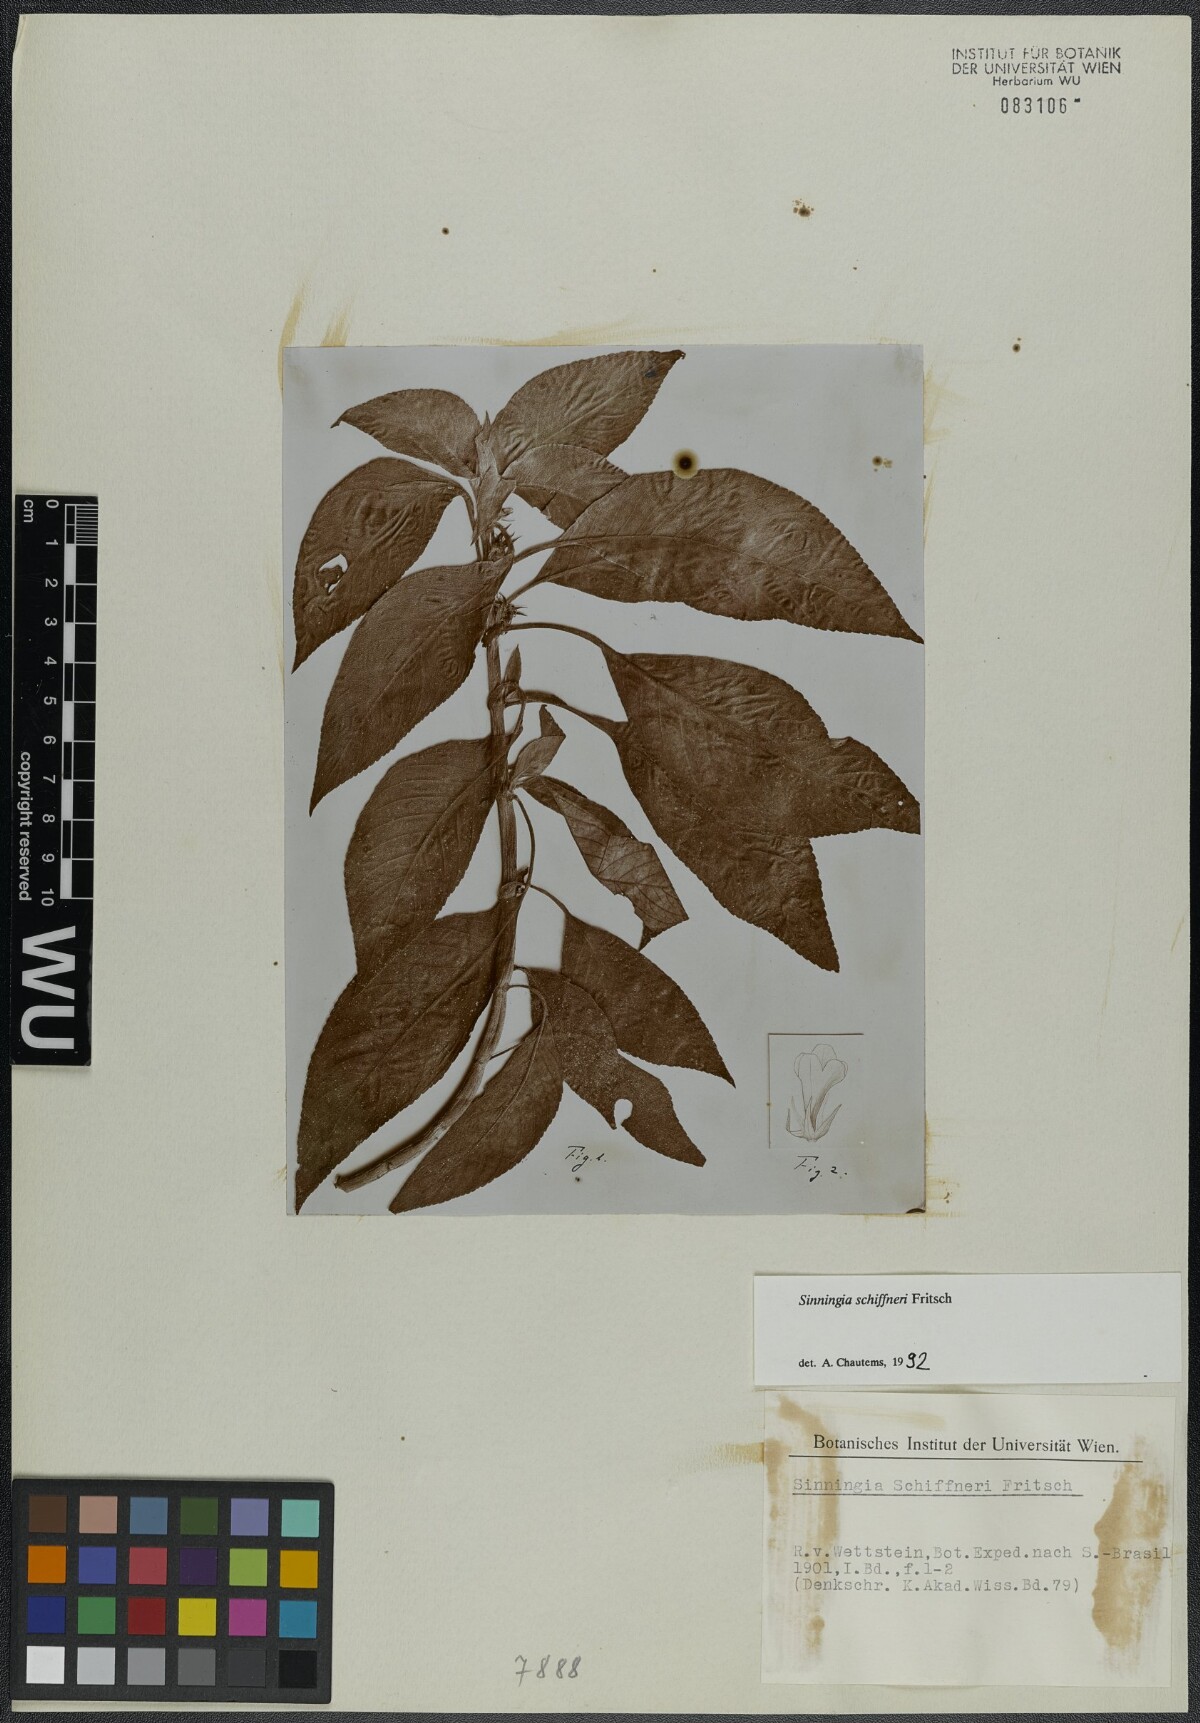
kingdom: Plantae
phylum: Tracheophyta
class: Magnoliopsida
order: Lamiales
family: Gesneriaceae
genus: Sinningia
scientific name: Sinningia schiffneri
